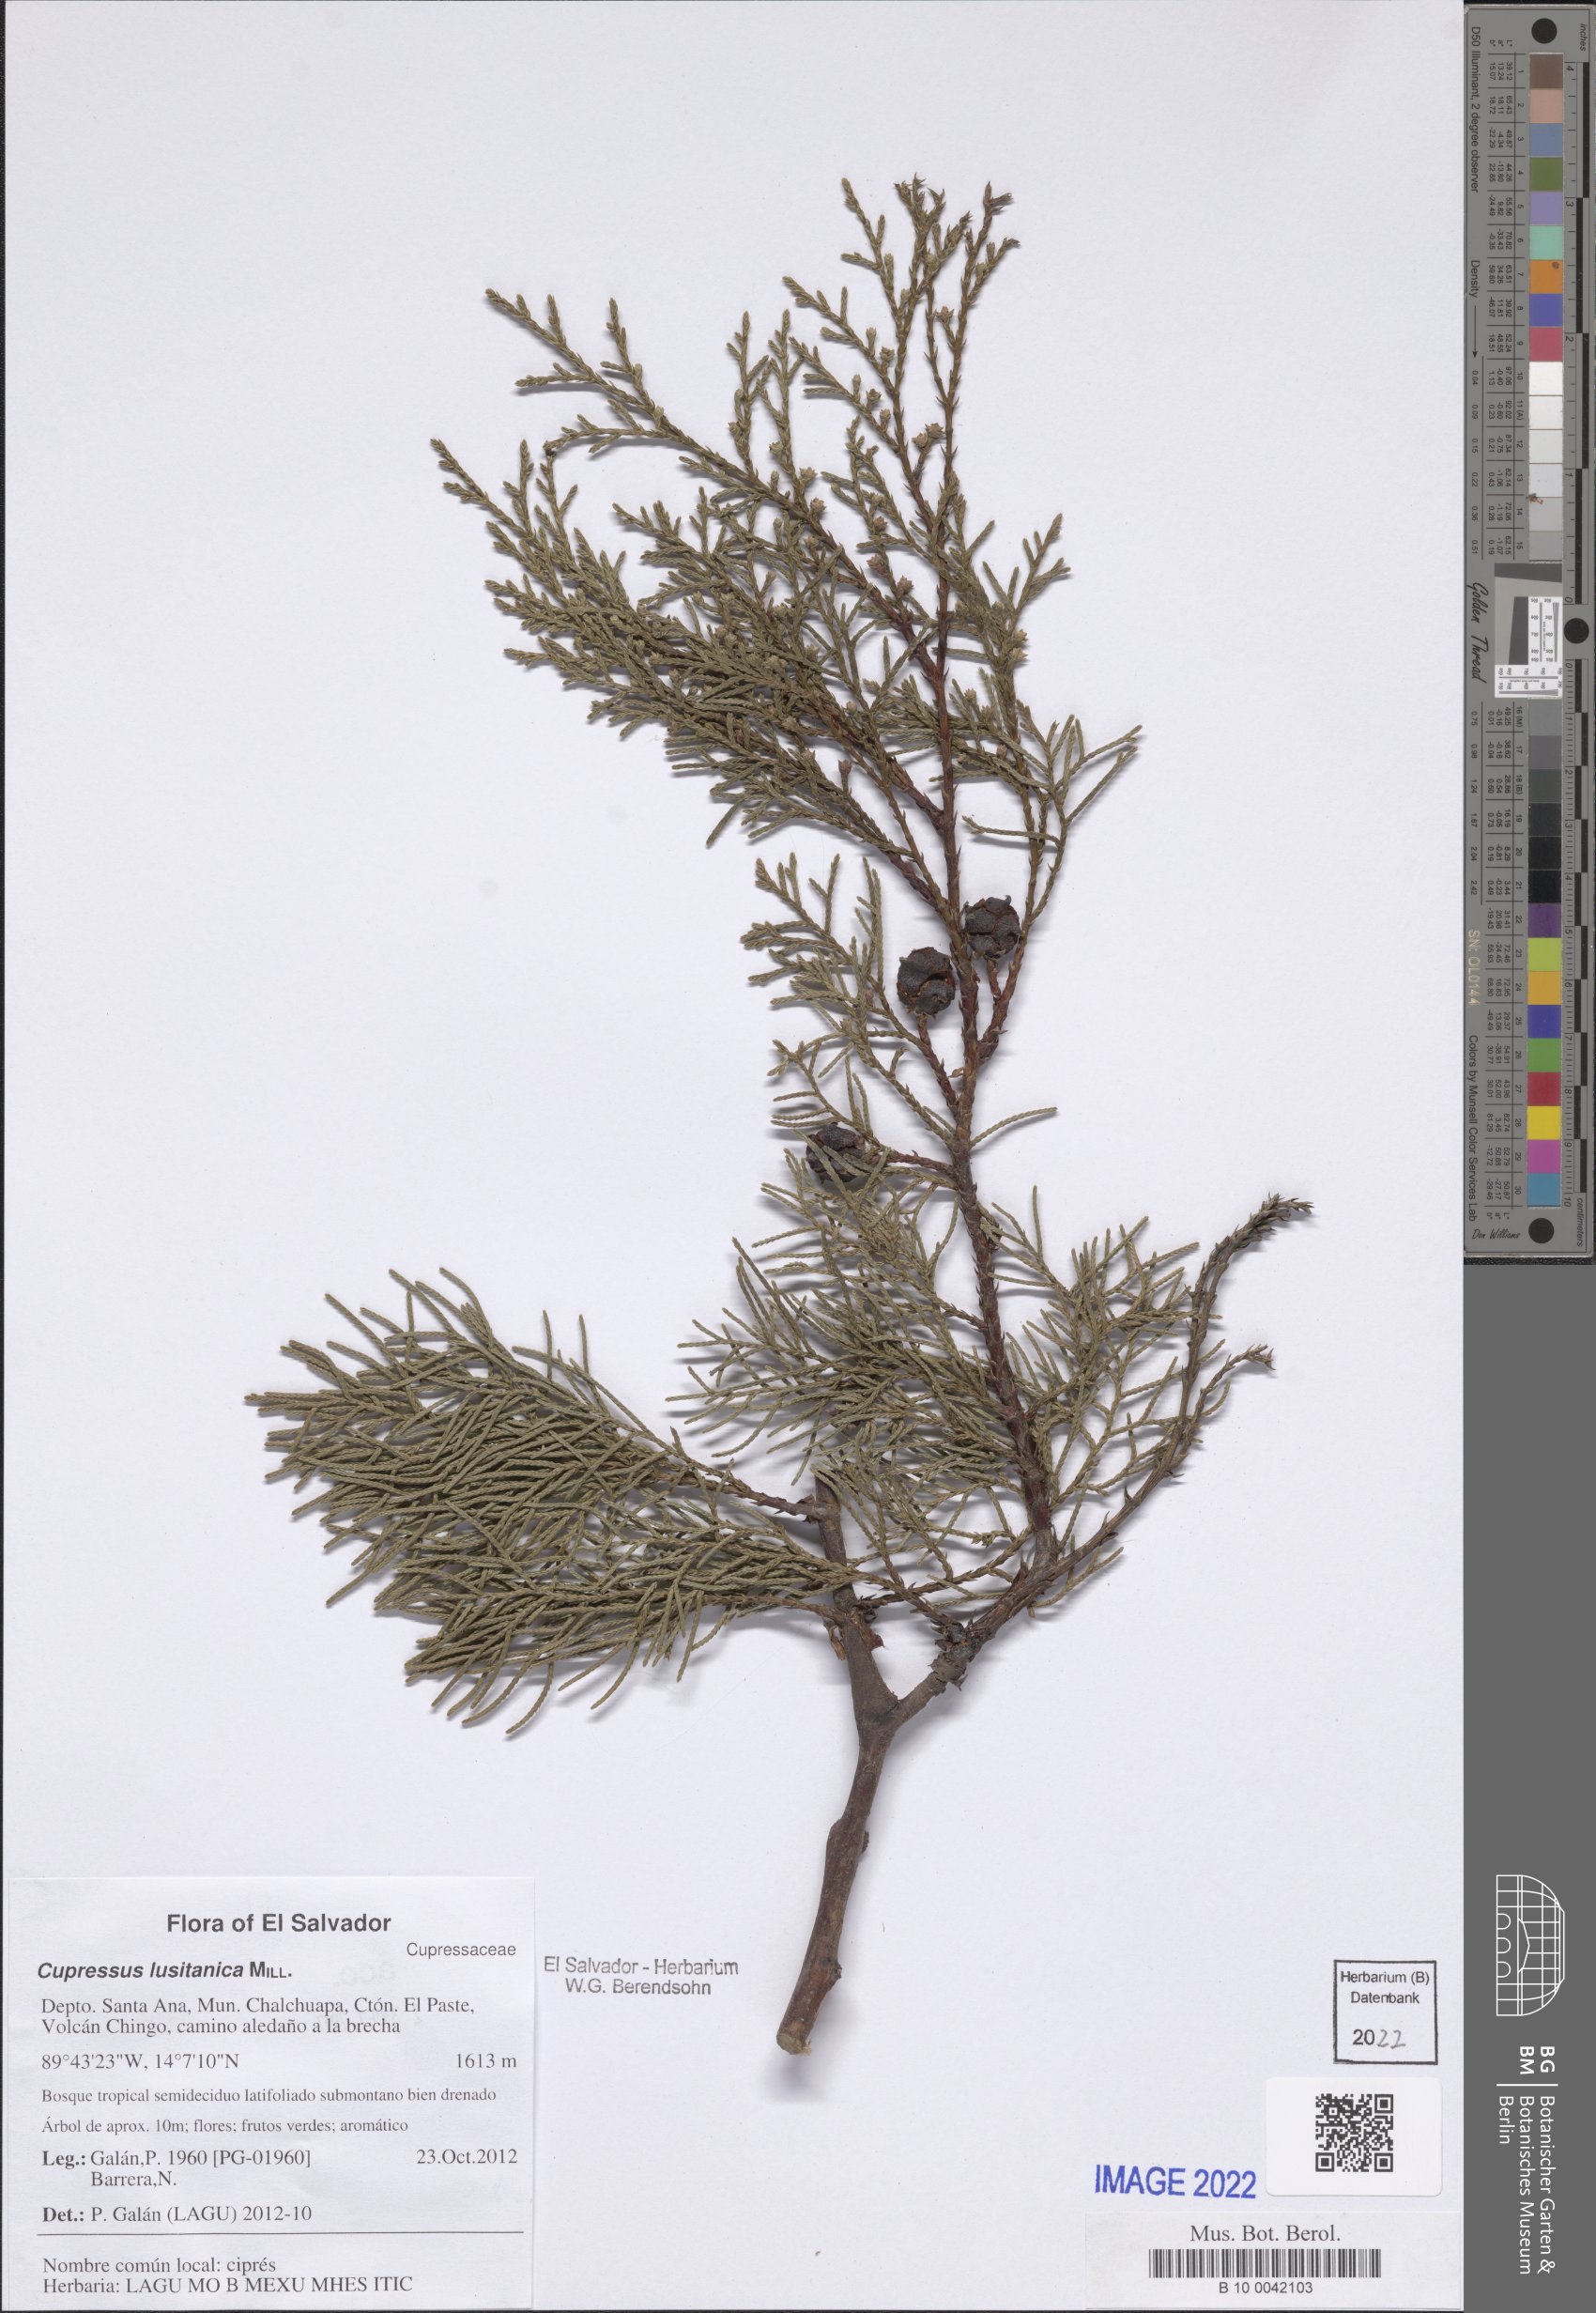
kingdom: Plantae
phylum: Tracheophyta
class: Pinopsida
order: Pinales
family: Cupressaceae
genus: Cupressus
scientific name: Cupressus lusitanica
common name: Mexican cypress
